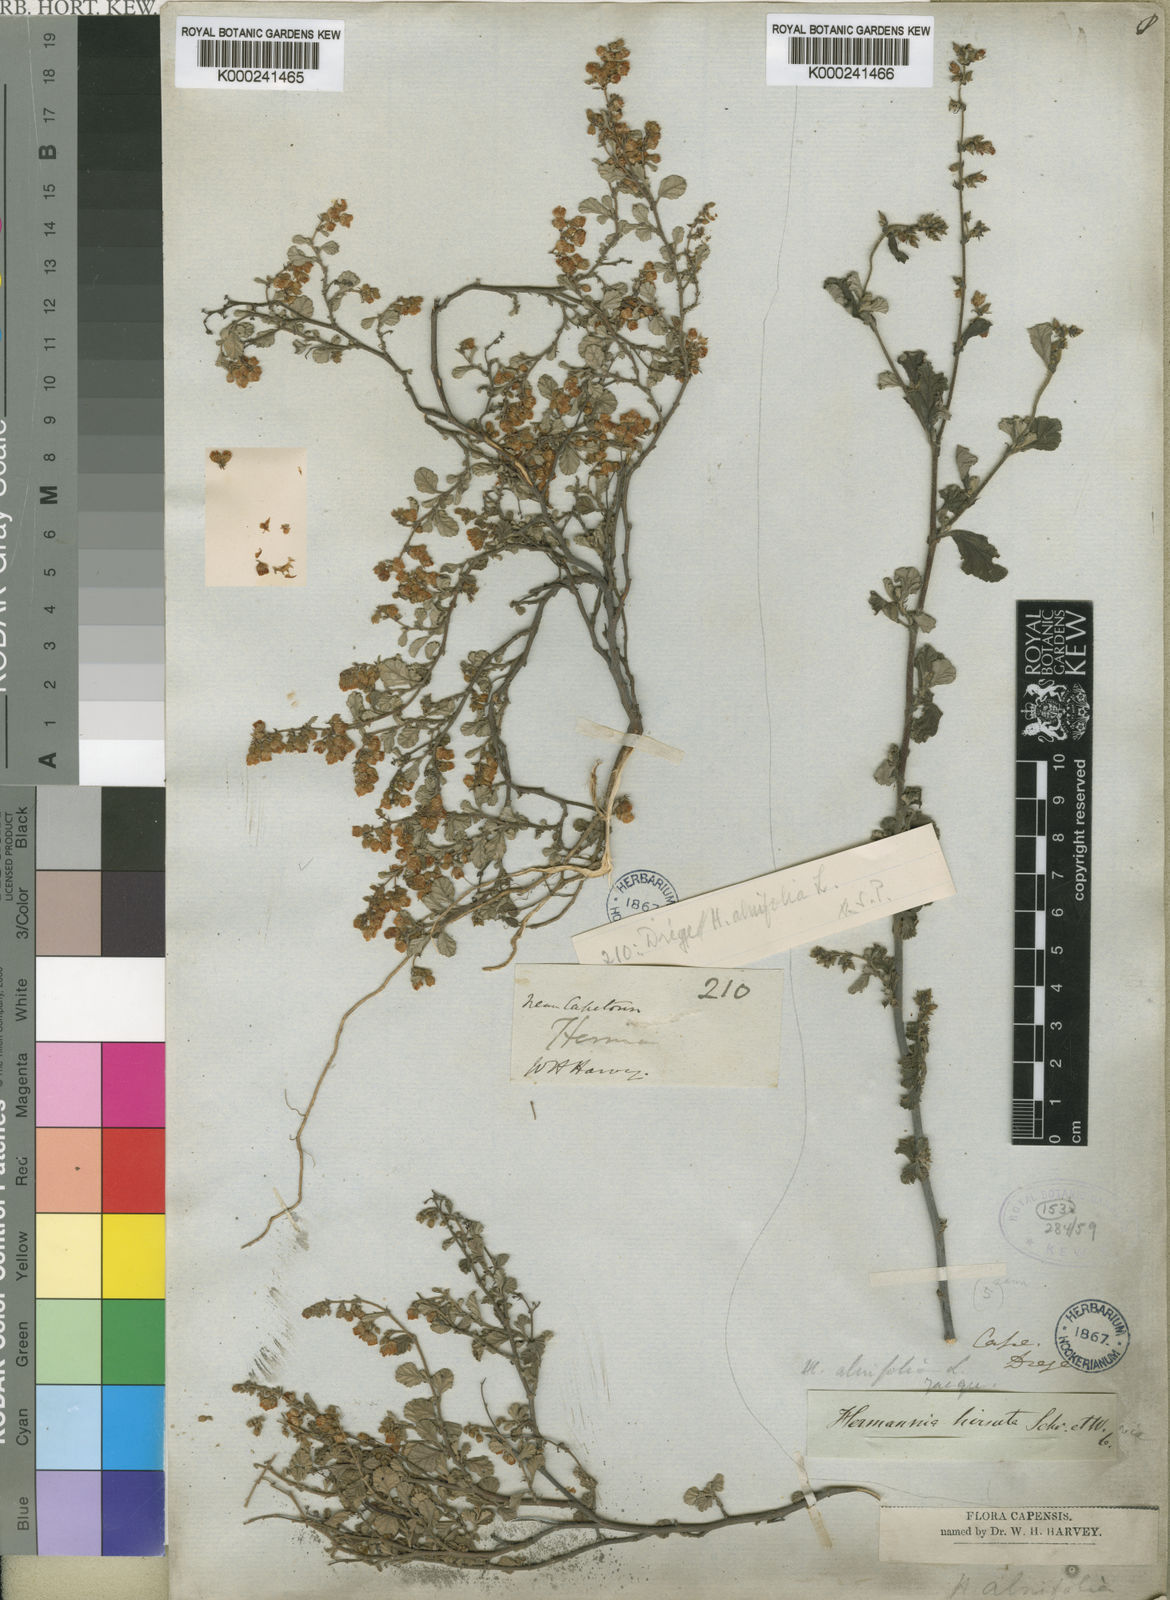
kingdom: Plantae
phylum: Tracheophyta
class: Magnoliopsida
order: Malvales
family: Malvaceae
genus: Hermannia
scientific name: Hermannia
